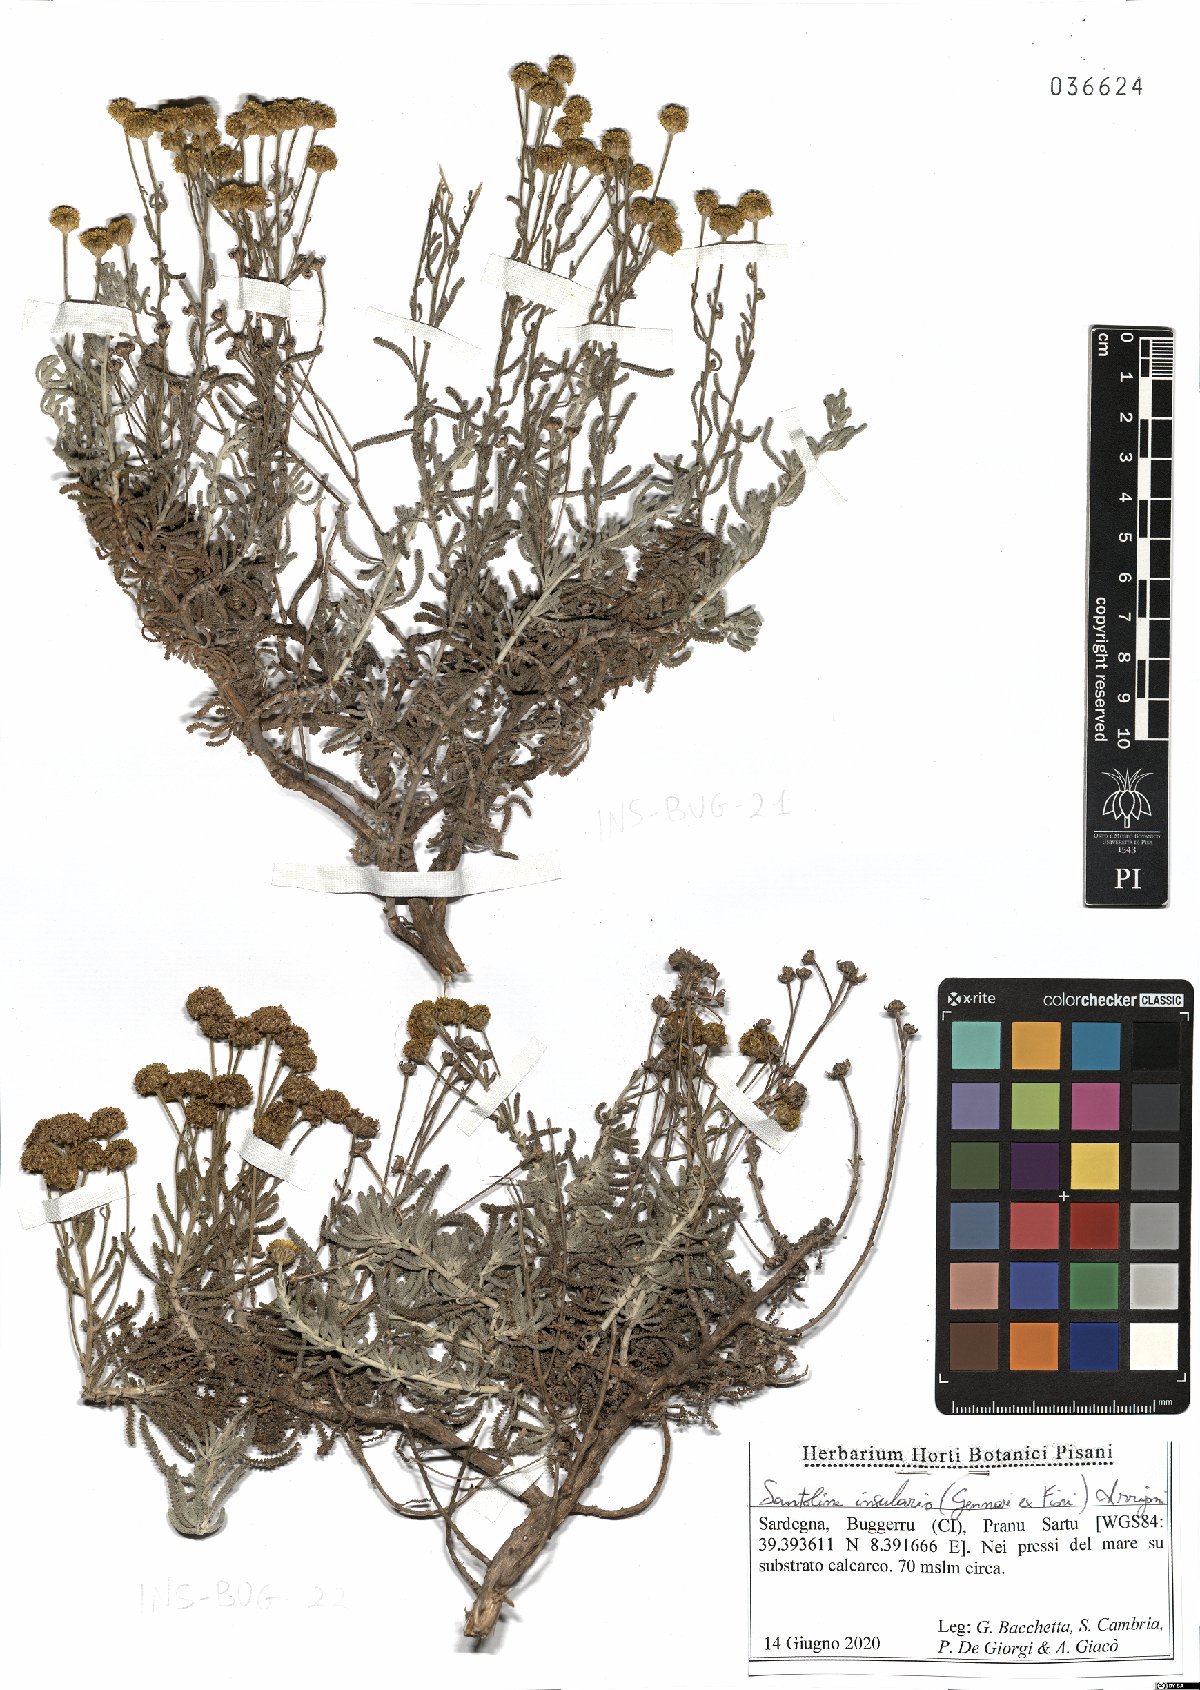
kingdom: Plantae
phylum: Tracheophyta
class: Magnoliopsida
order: Asterales
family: Asteraceae
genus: Santolina
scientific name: Santolina insularis
